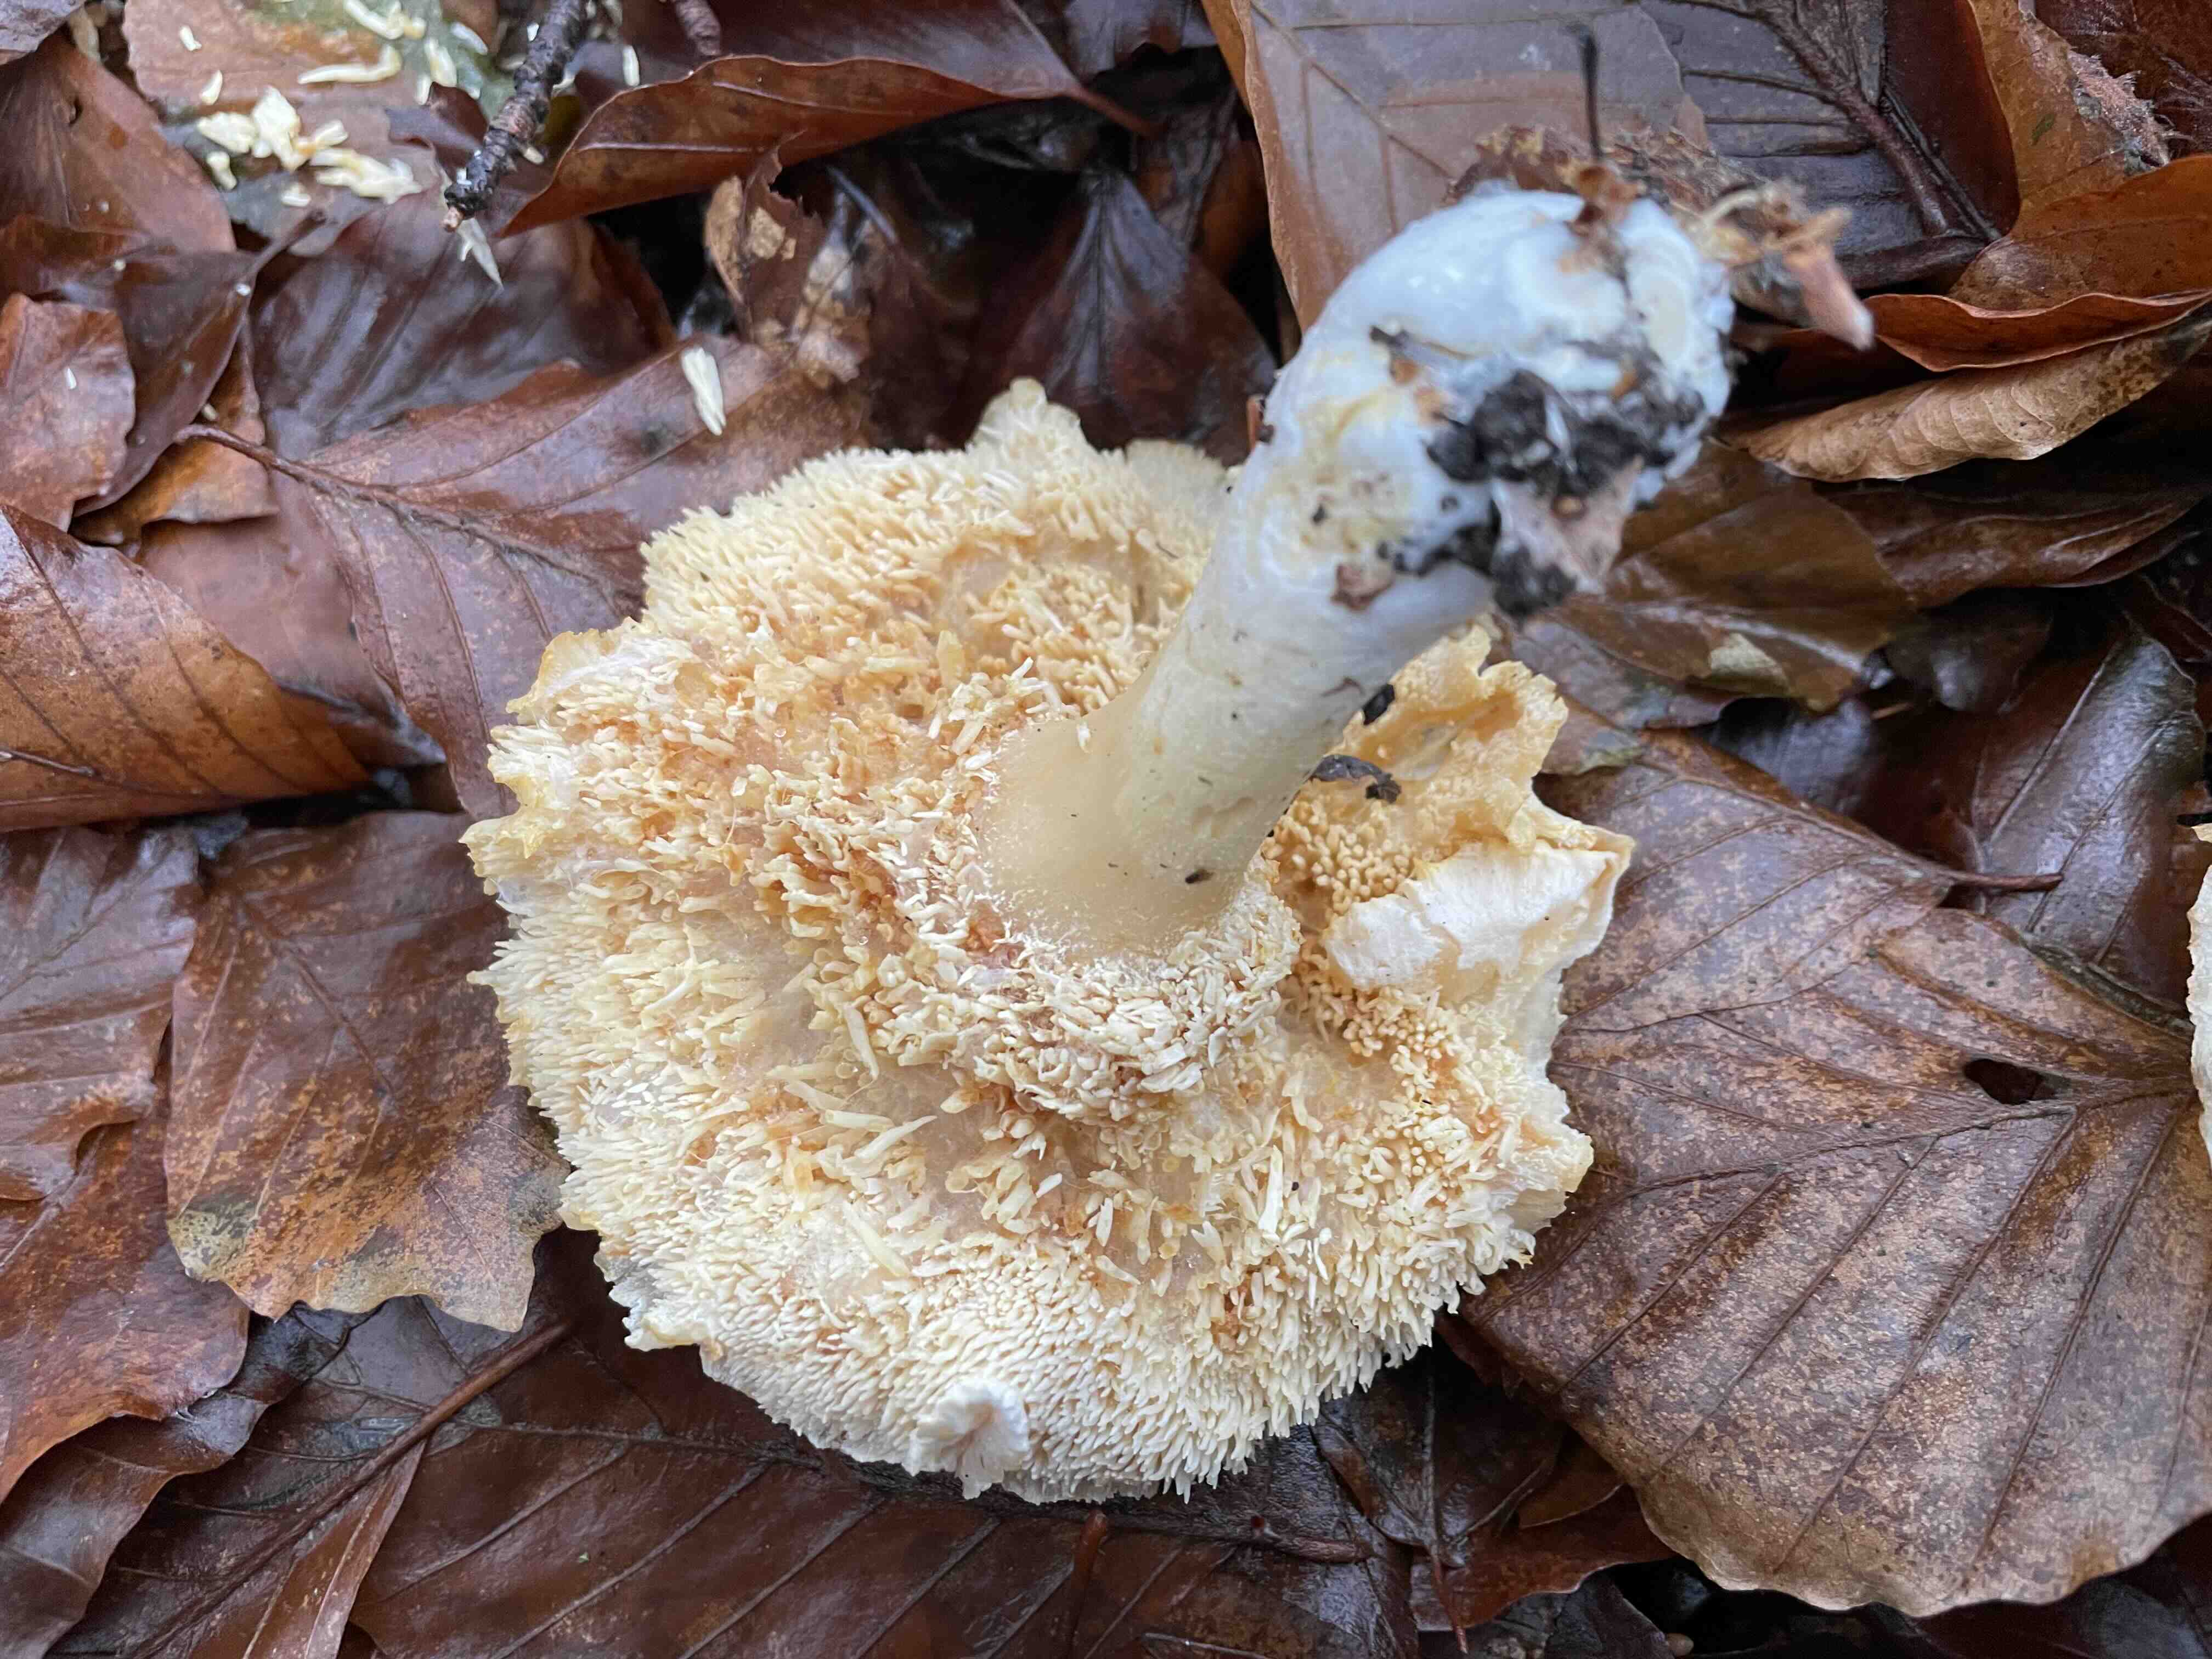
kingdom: Fungi
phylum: Basidiomycota
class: Agaricomycetes
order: Cantharellales
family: Hydnaceae
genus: Hydnum
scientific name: Hydnum umbilicatum
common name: navle-pigsvamp
